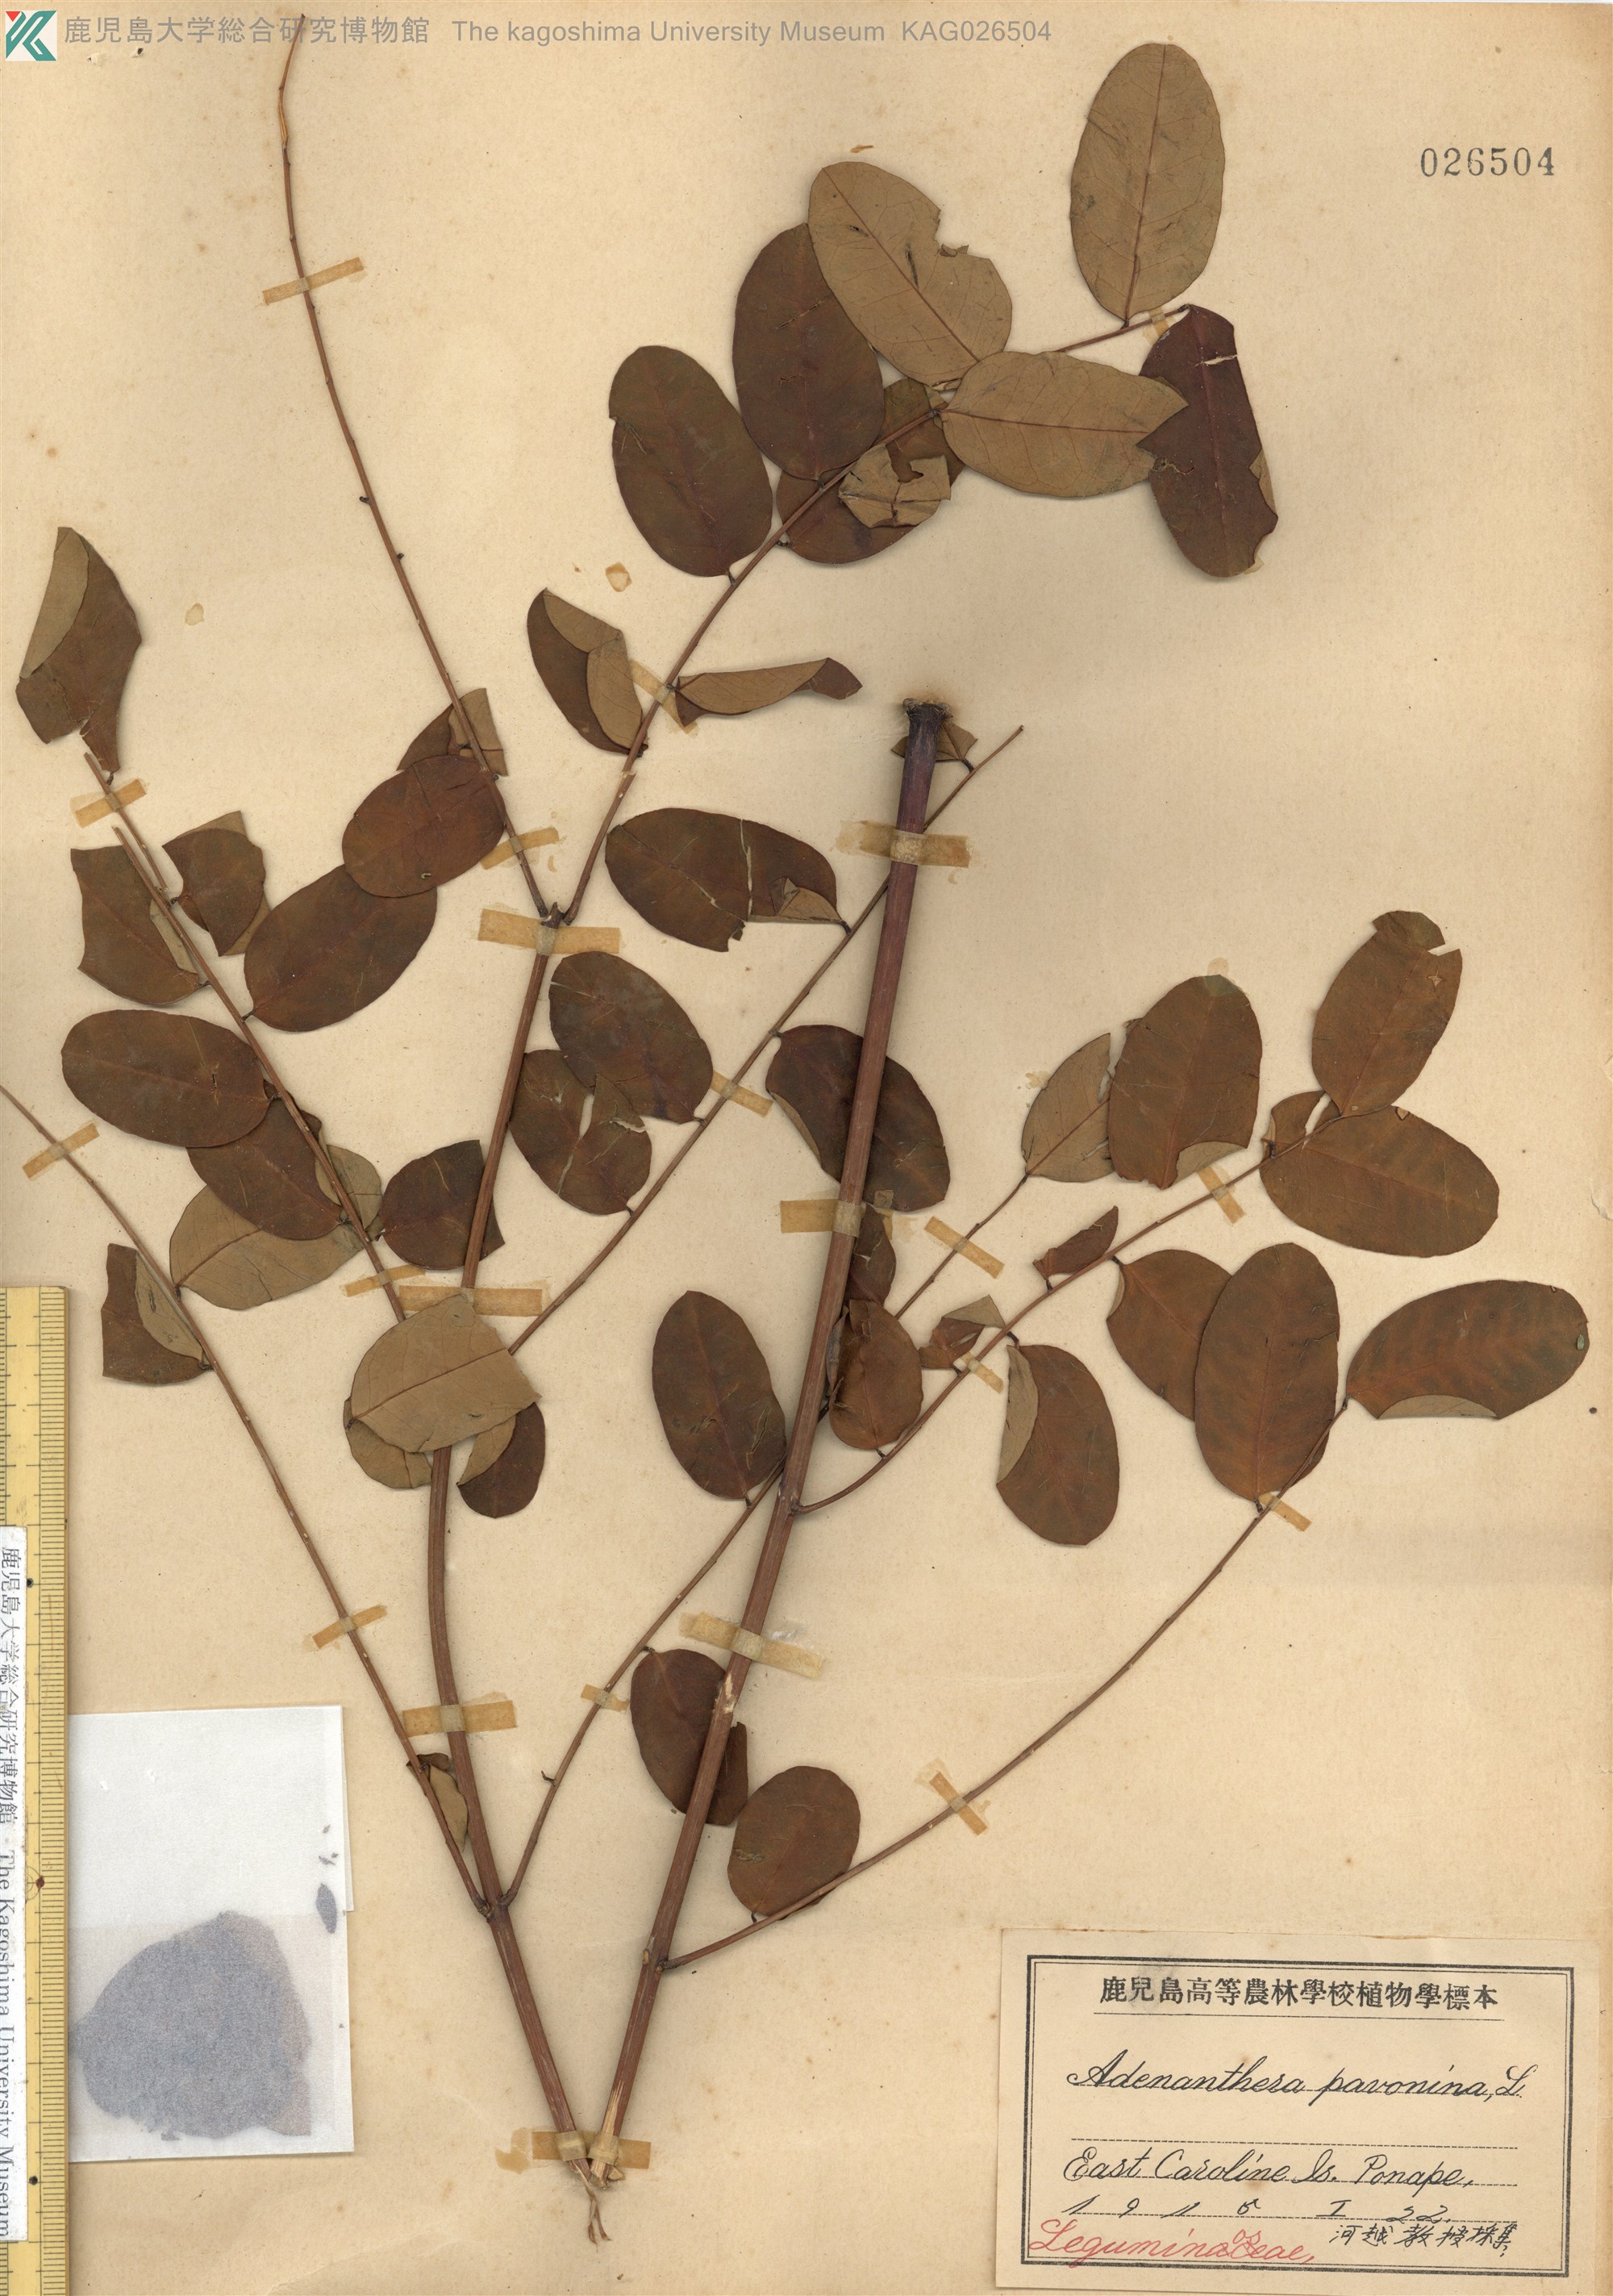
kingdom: Plantae
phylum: Tracheophyta
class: Magnoliopsida
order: Fabales
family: Fabaceae
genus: Adenanthera
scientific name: Adenanthera pavonina
